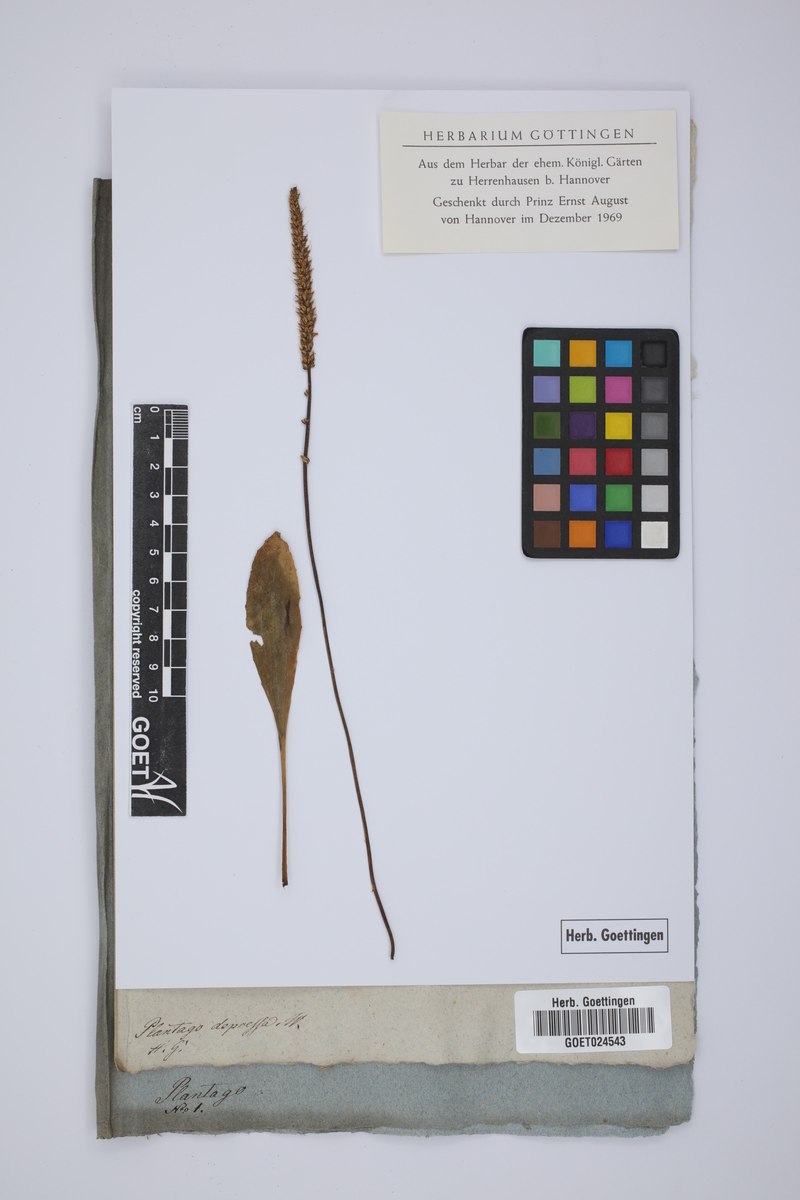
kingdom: Plantae
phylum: Tracheophyta
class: Magnoliopsida
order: Lamiales
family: Plantaginaceae
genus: Plantago
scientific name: Plantago depressa
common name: Depressed plantain
